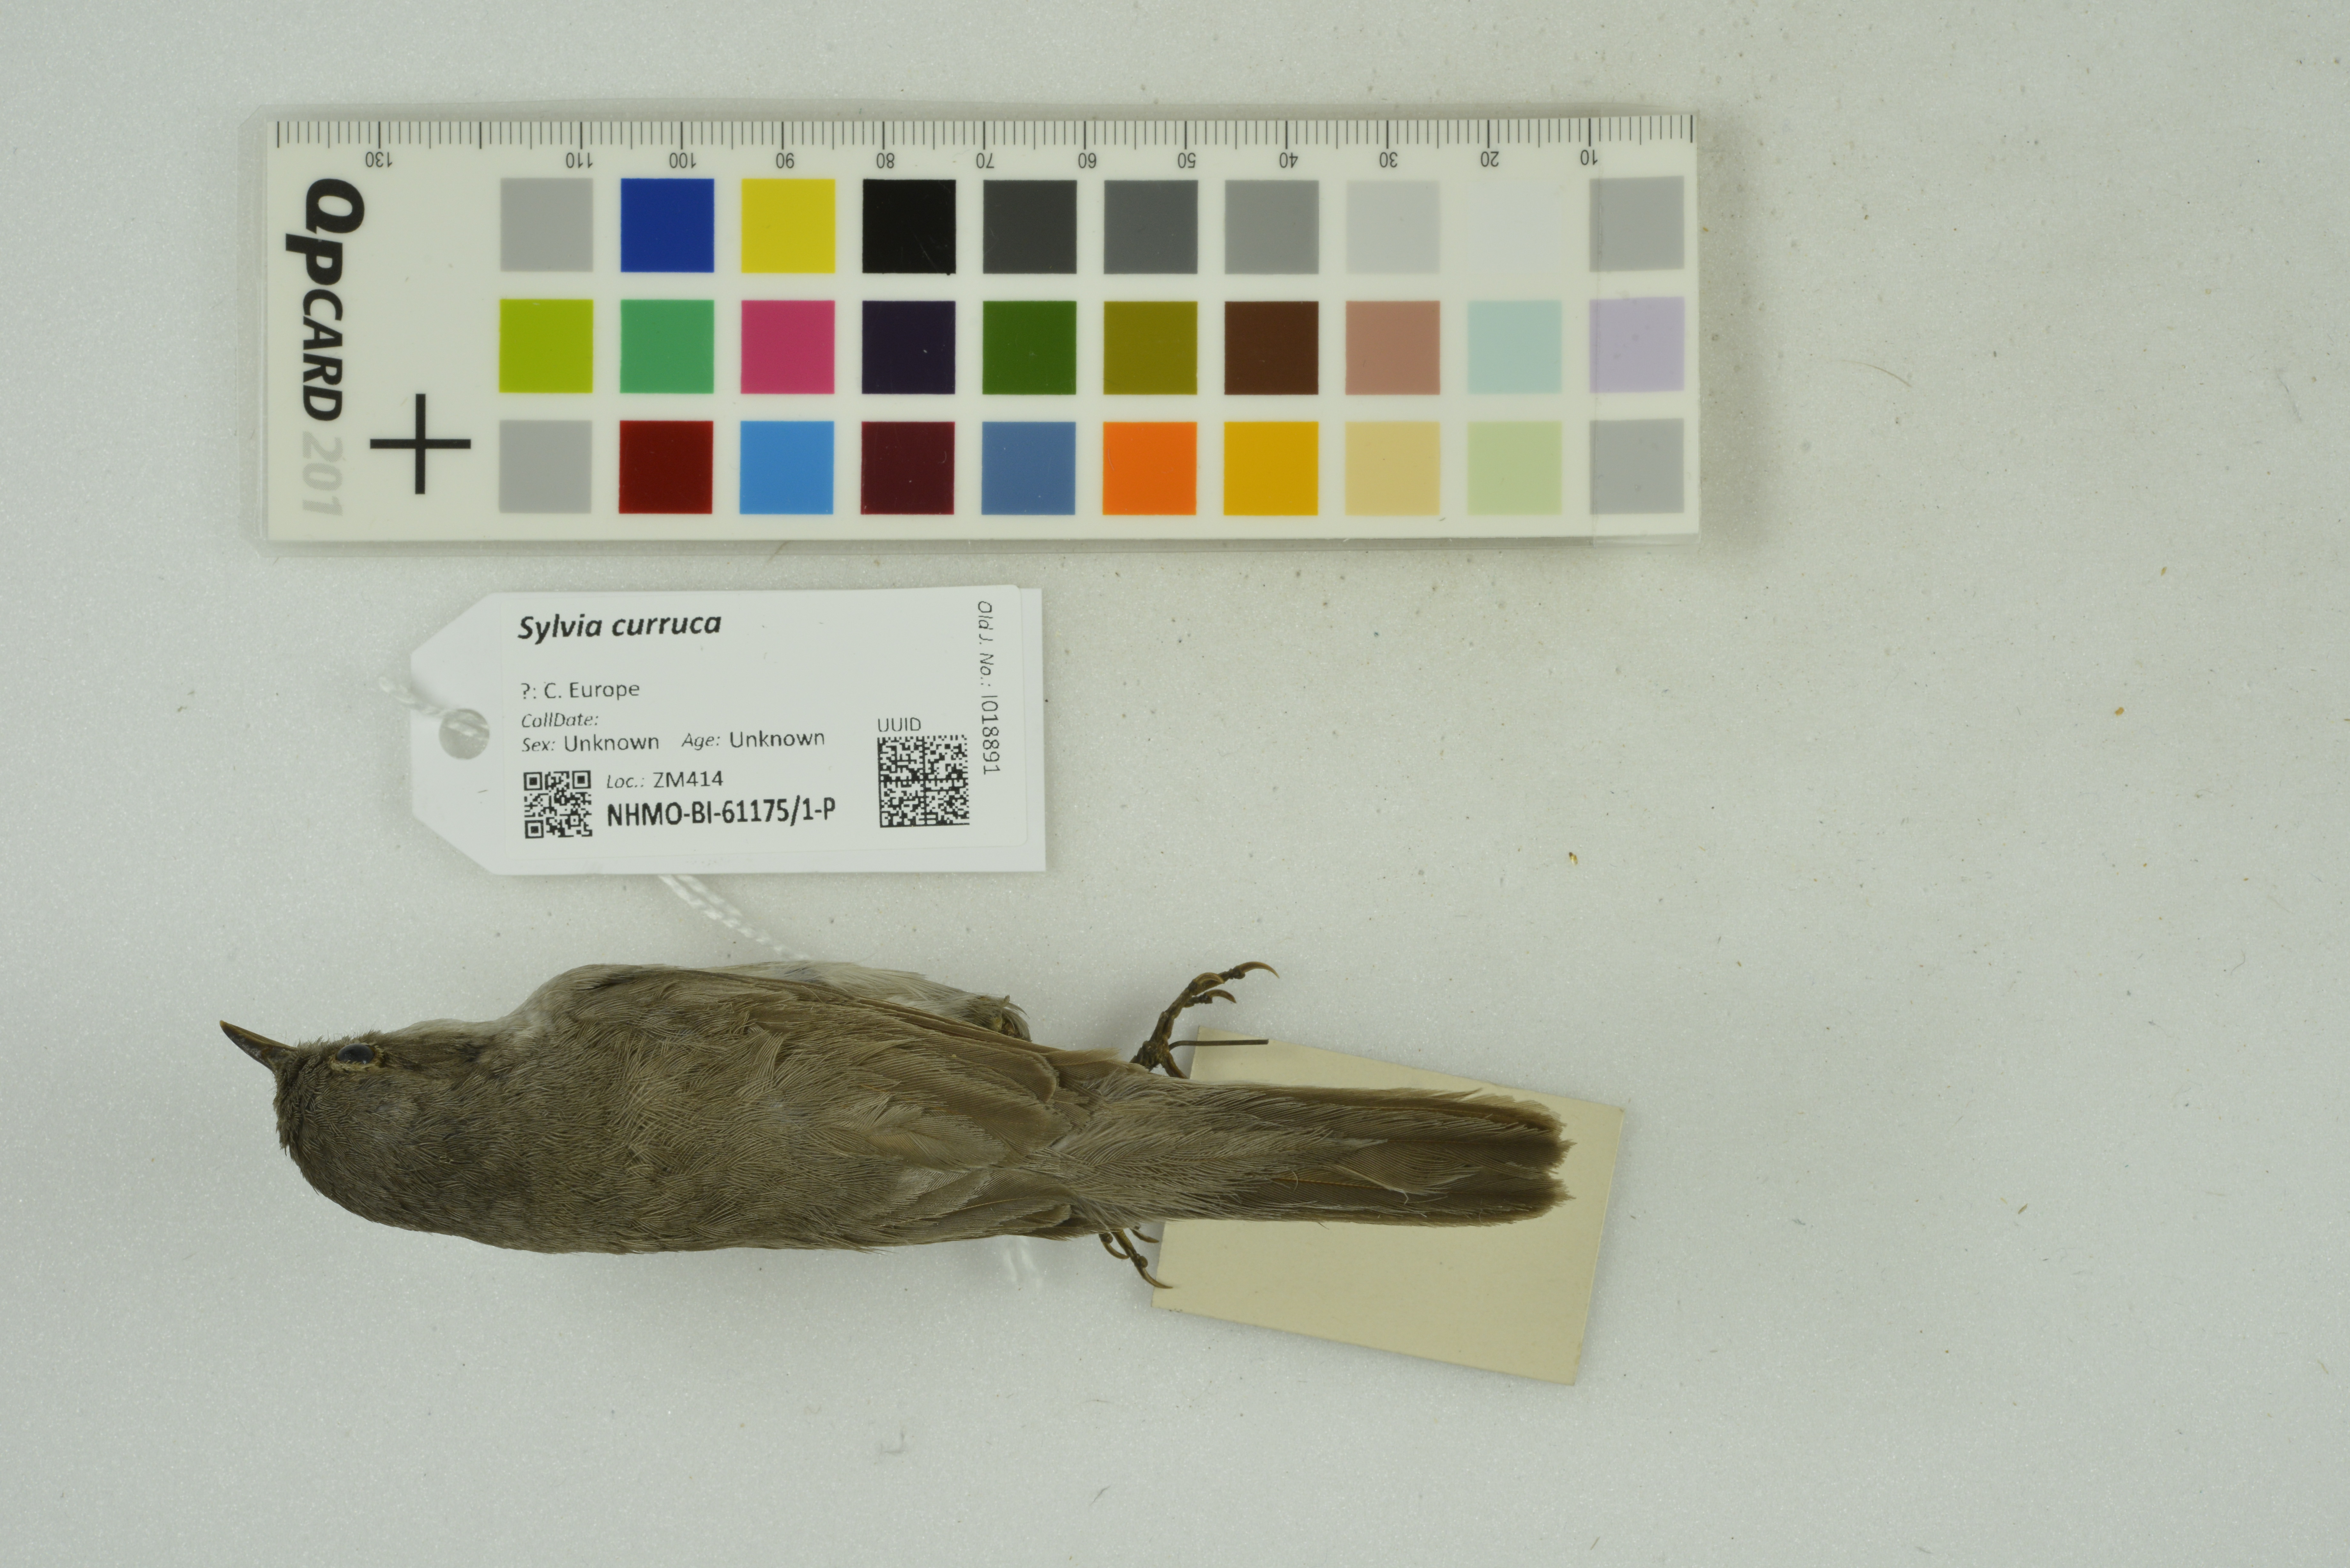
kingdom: Animalia
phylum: Chordata
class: Aves
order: Passeriformes
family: Sylviidae
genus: Sylvia
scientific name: Sylvia curruca
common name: Lesser whitethroat
